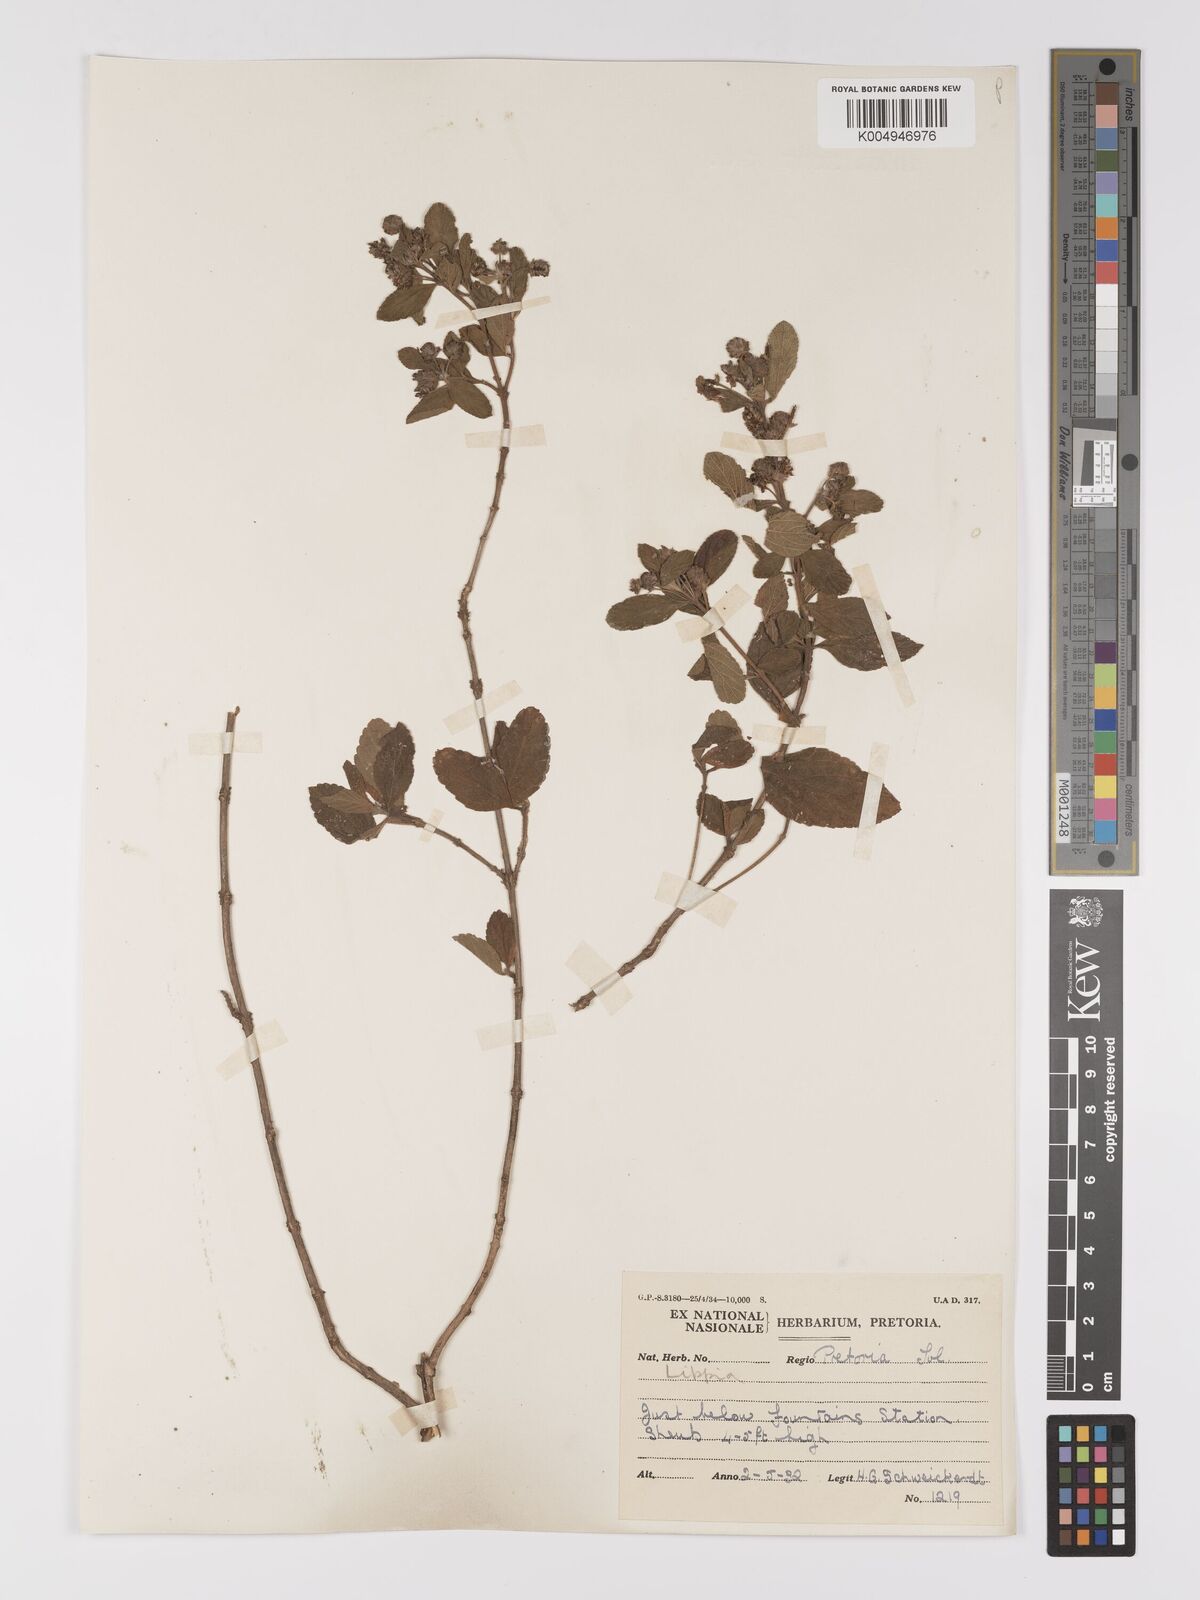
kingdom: Plantae
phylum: Tracheophyta
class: Magnoliopsida
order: Lamiales
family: Verbenaceae
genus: Lippia
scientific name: Lippia
